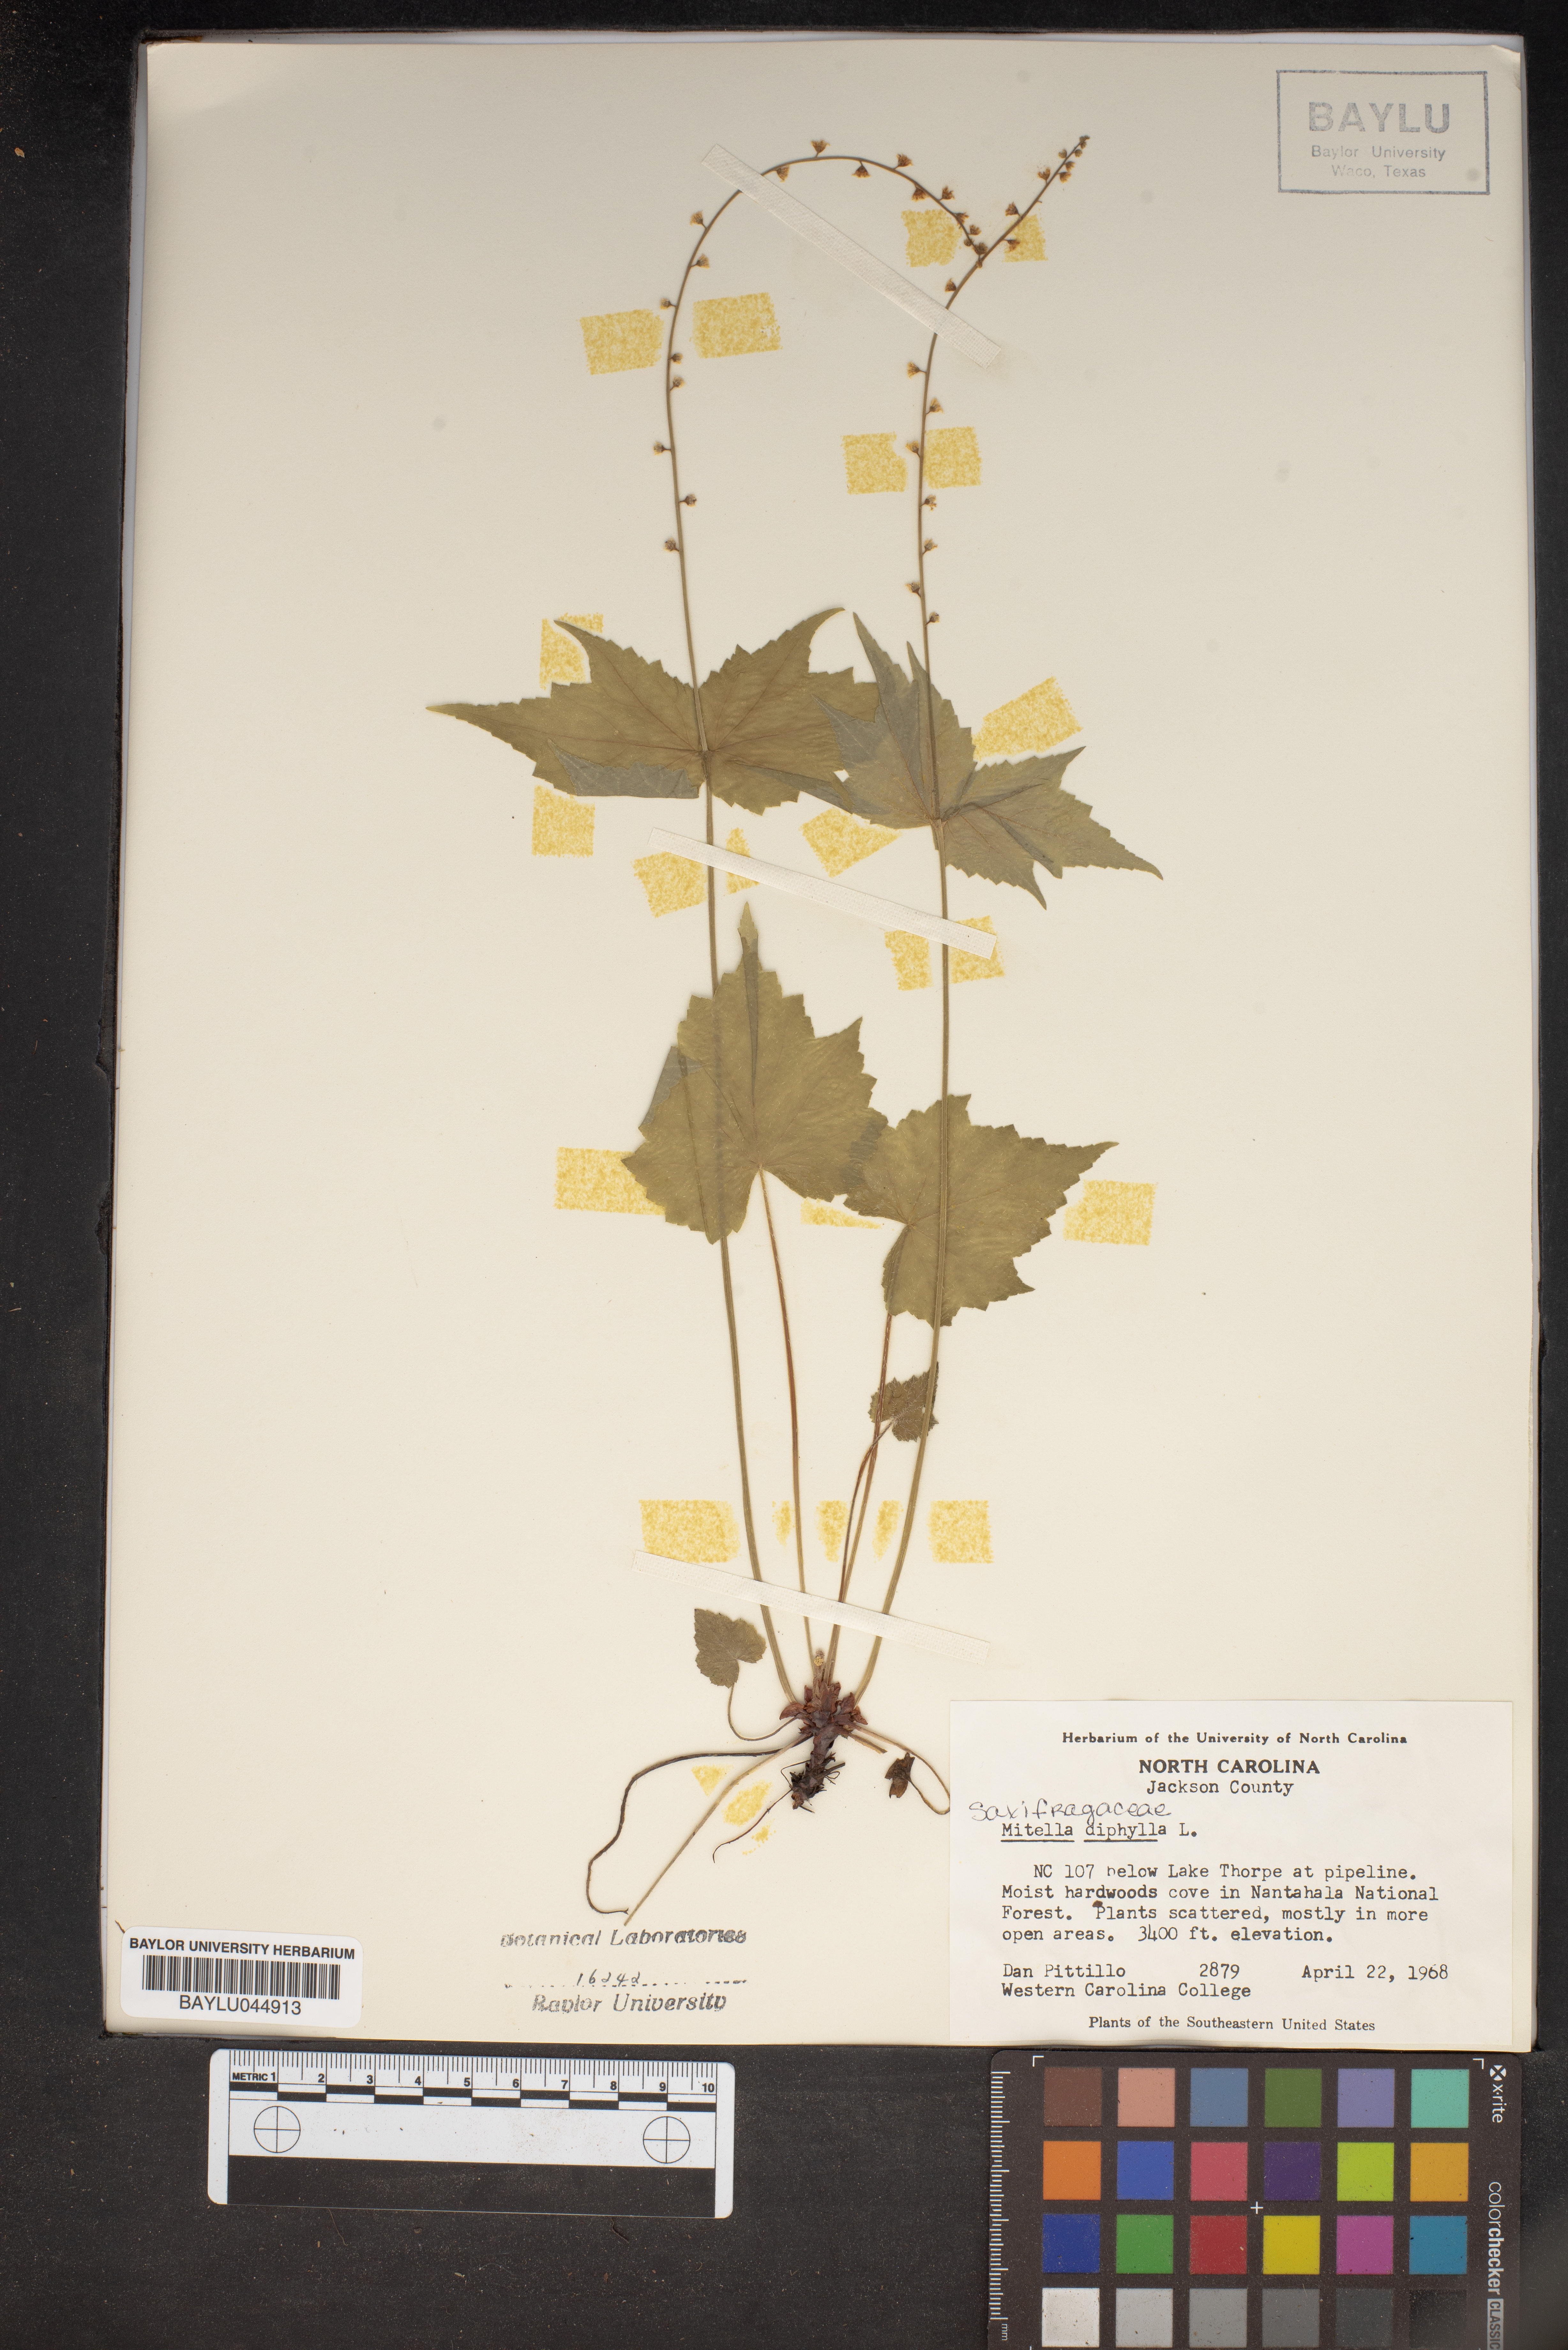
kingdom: Plantae
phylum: Tracheophyta
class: Magnoliopsida
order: Saxifragales
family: Saxifragaceae
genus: Mitella
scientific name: Mitella diphylla
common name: Coolwort
